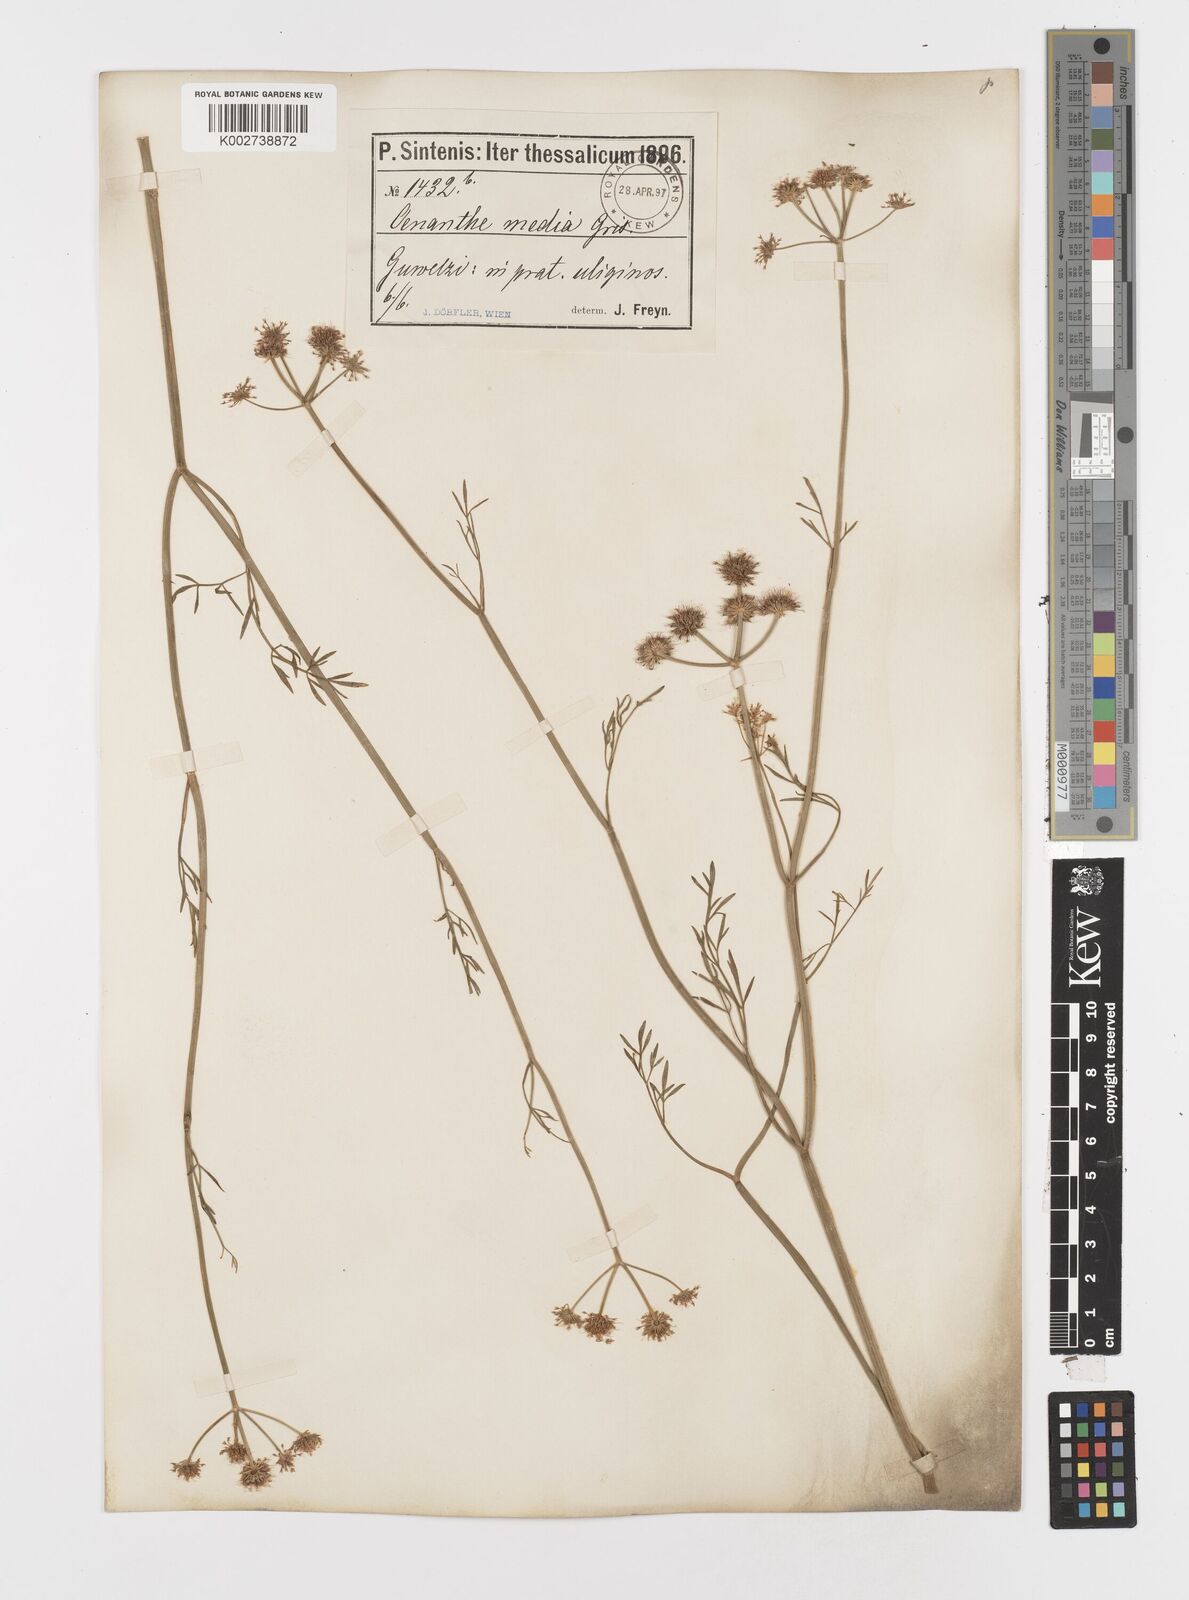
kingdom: Plantae
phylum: Tracheophyta
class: Magnoliopsida
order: Apiales
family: Apiaceae
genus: Oenanthe
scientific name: Oenanthe silaifolia
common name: Narrow-leaved water-dropwort
